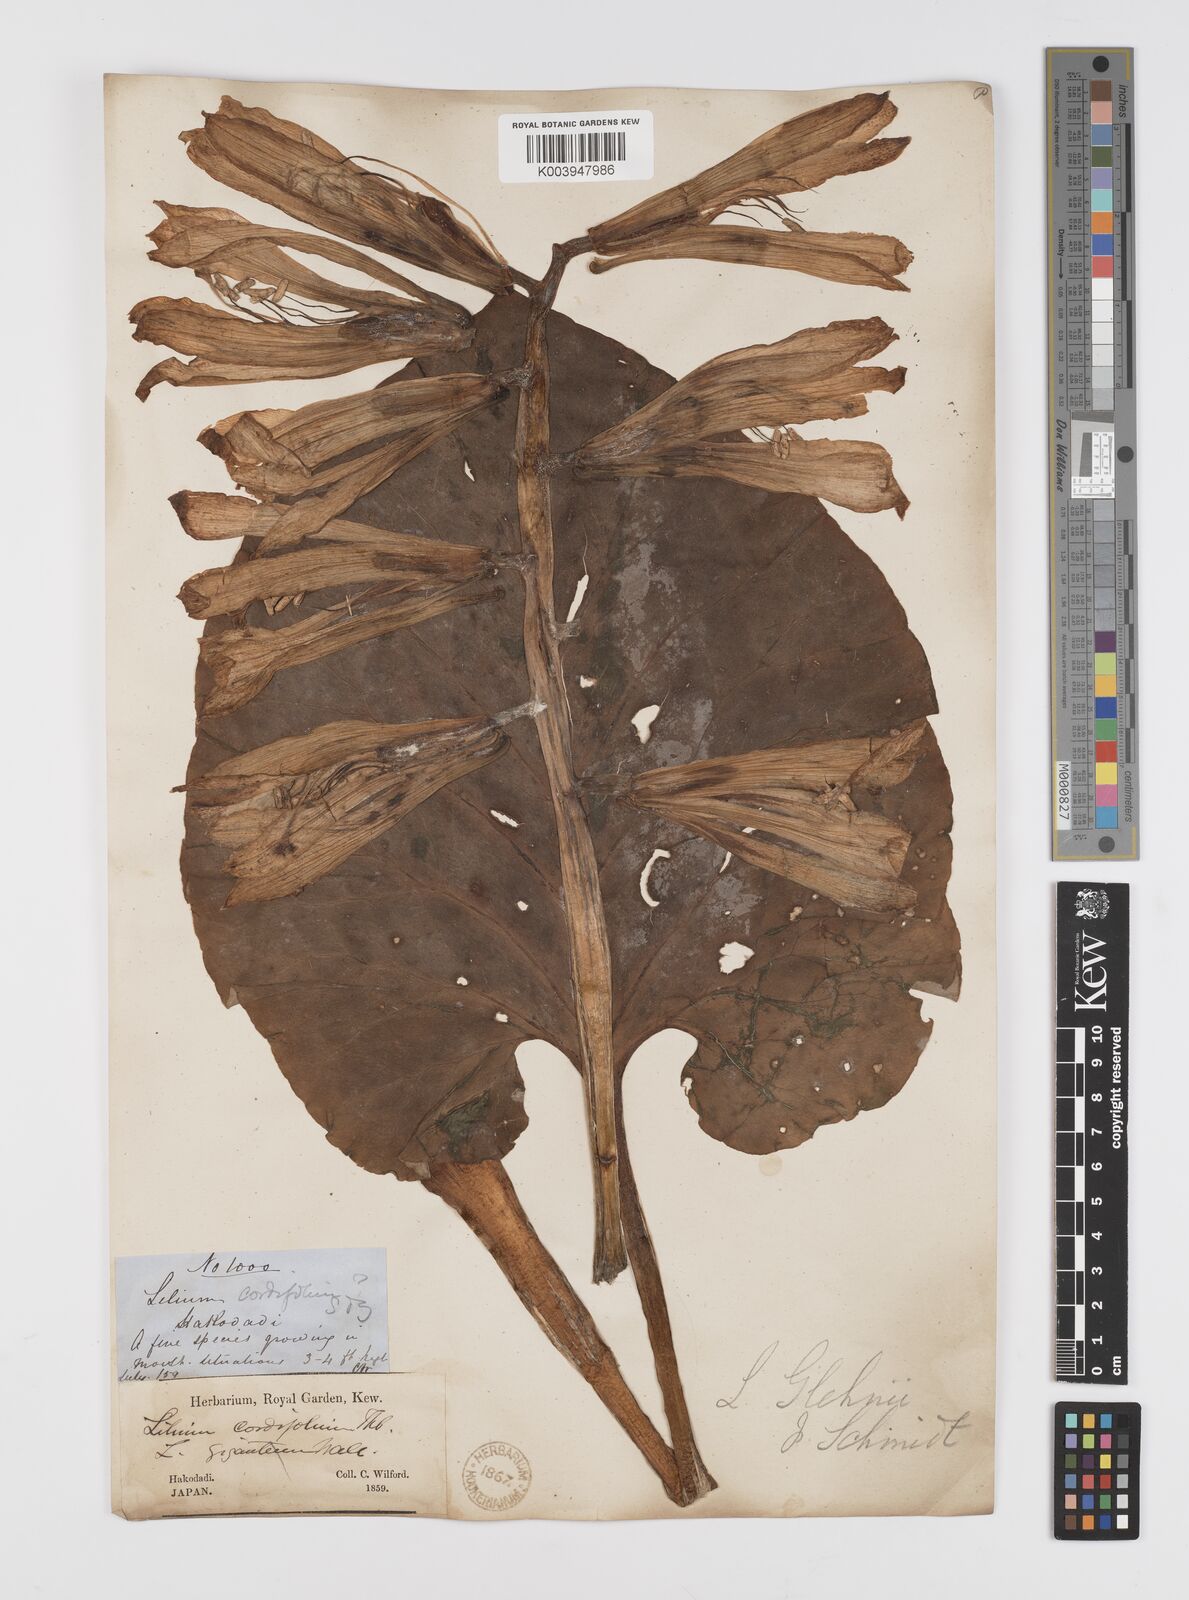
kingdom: Plantae
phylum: Tracheophyta
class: Liliopsida
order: Liliales
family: Liliaceae
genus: Cardiocrinum
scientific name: Cardiocrinum
